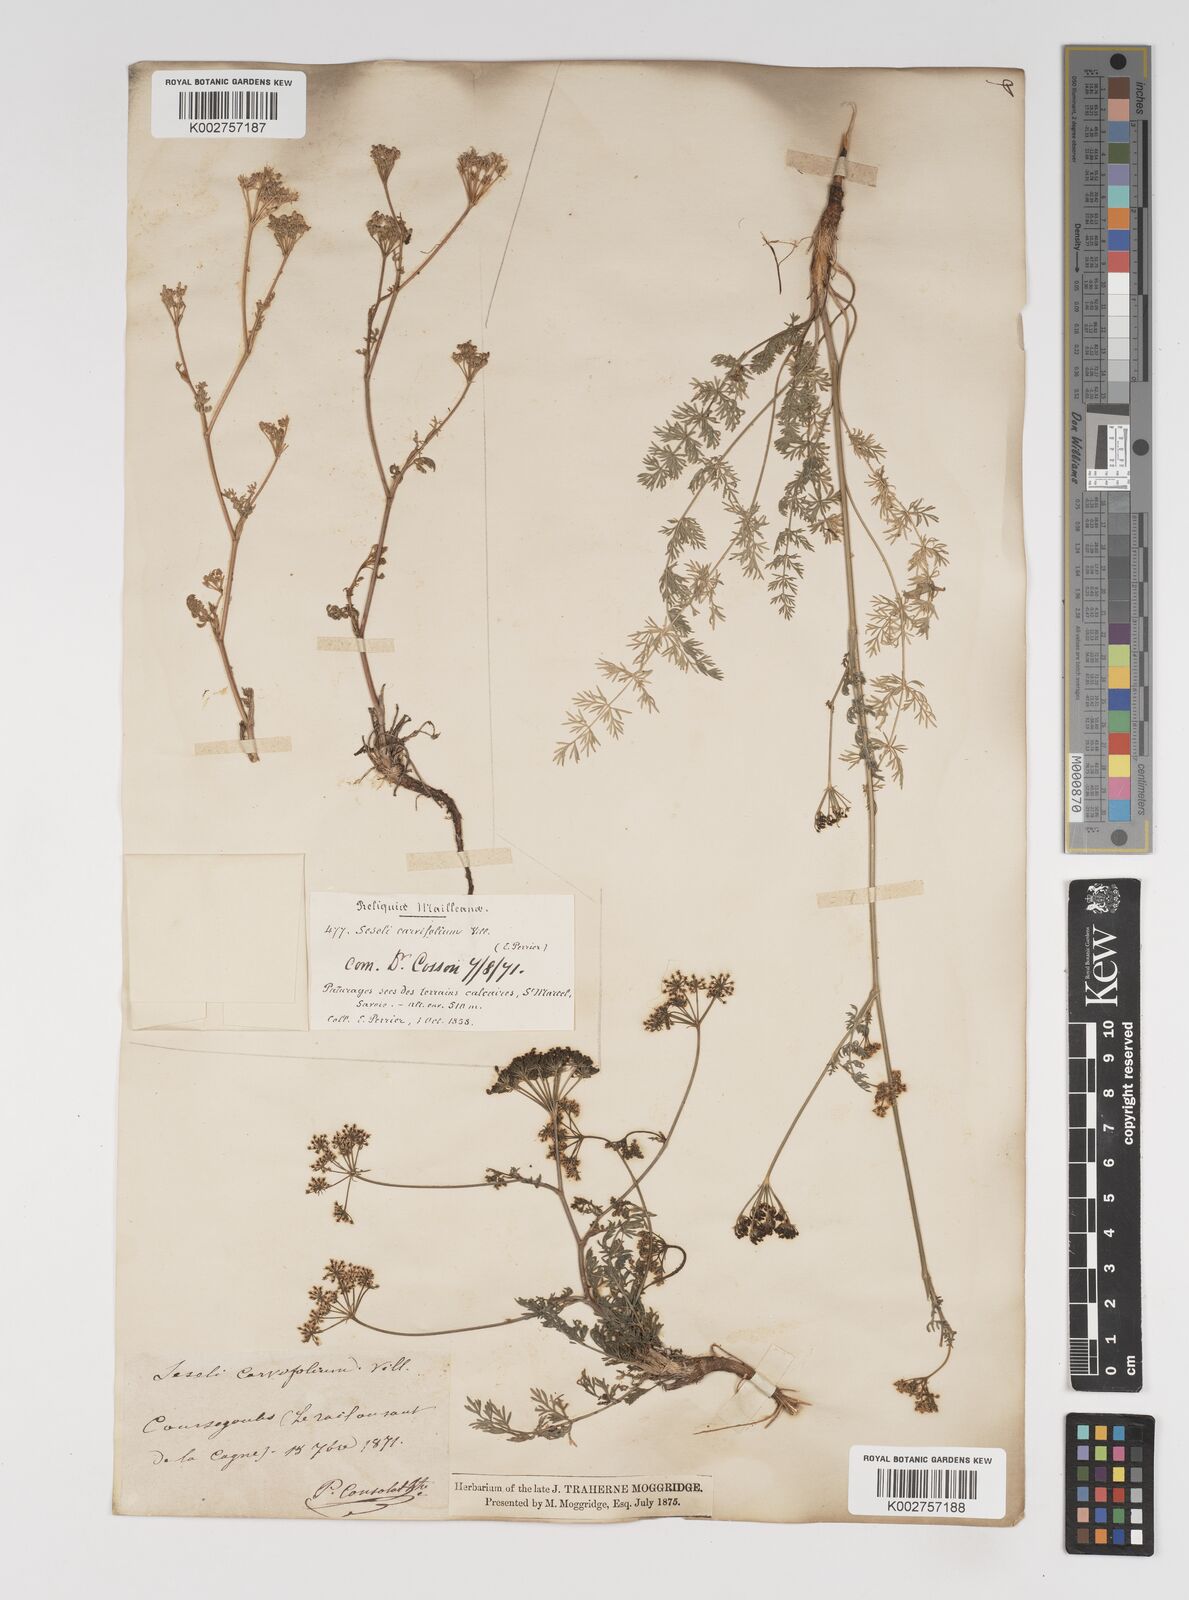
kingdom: Plantae
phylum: Tracheophyta
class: Magnoliopsida
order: Apiales
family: Apiaceae
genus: Seseli
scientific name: Seseli annuum
